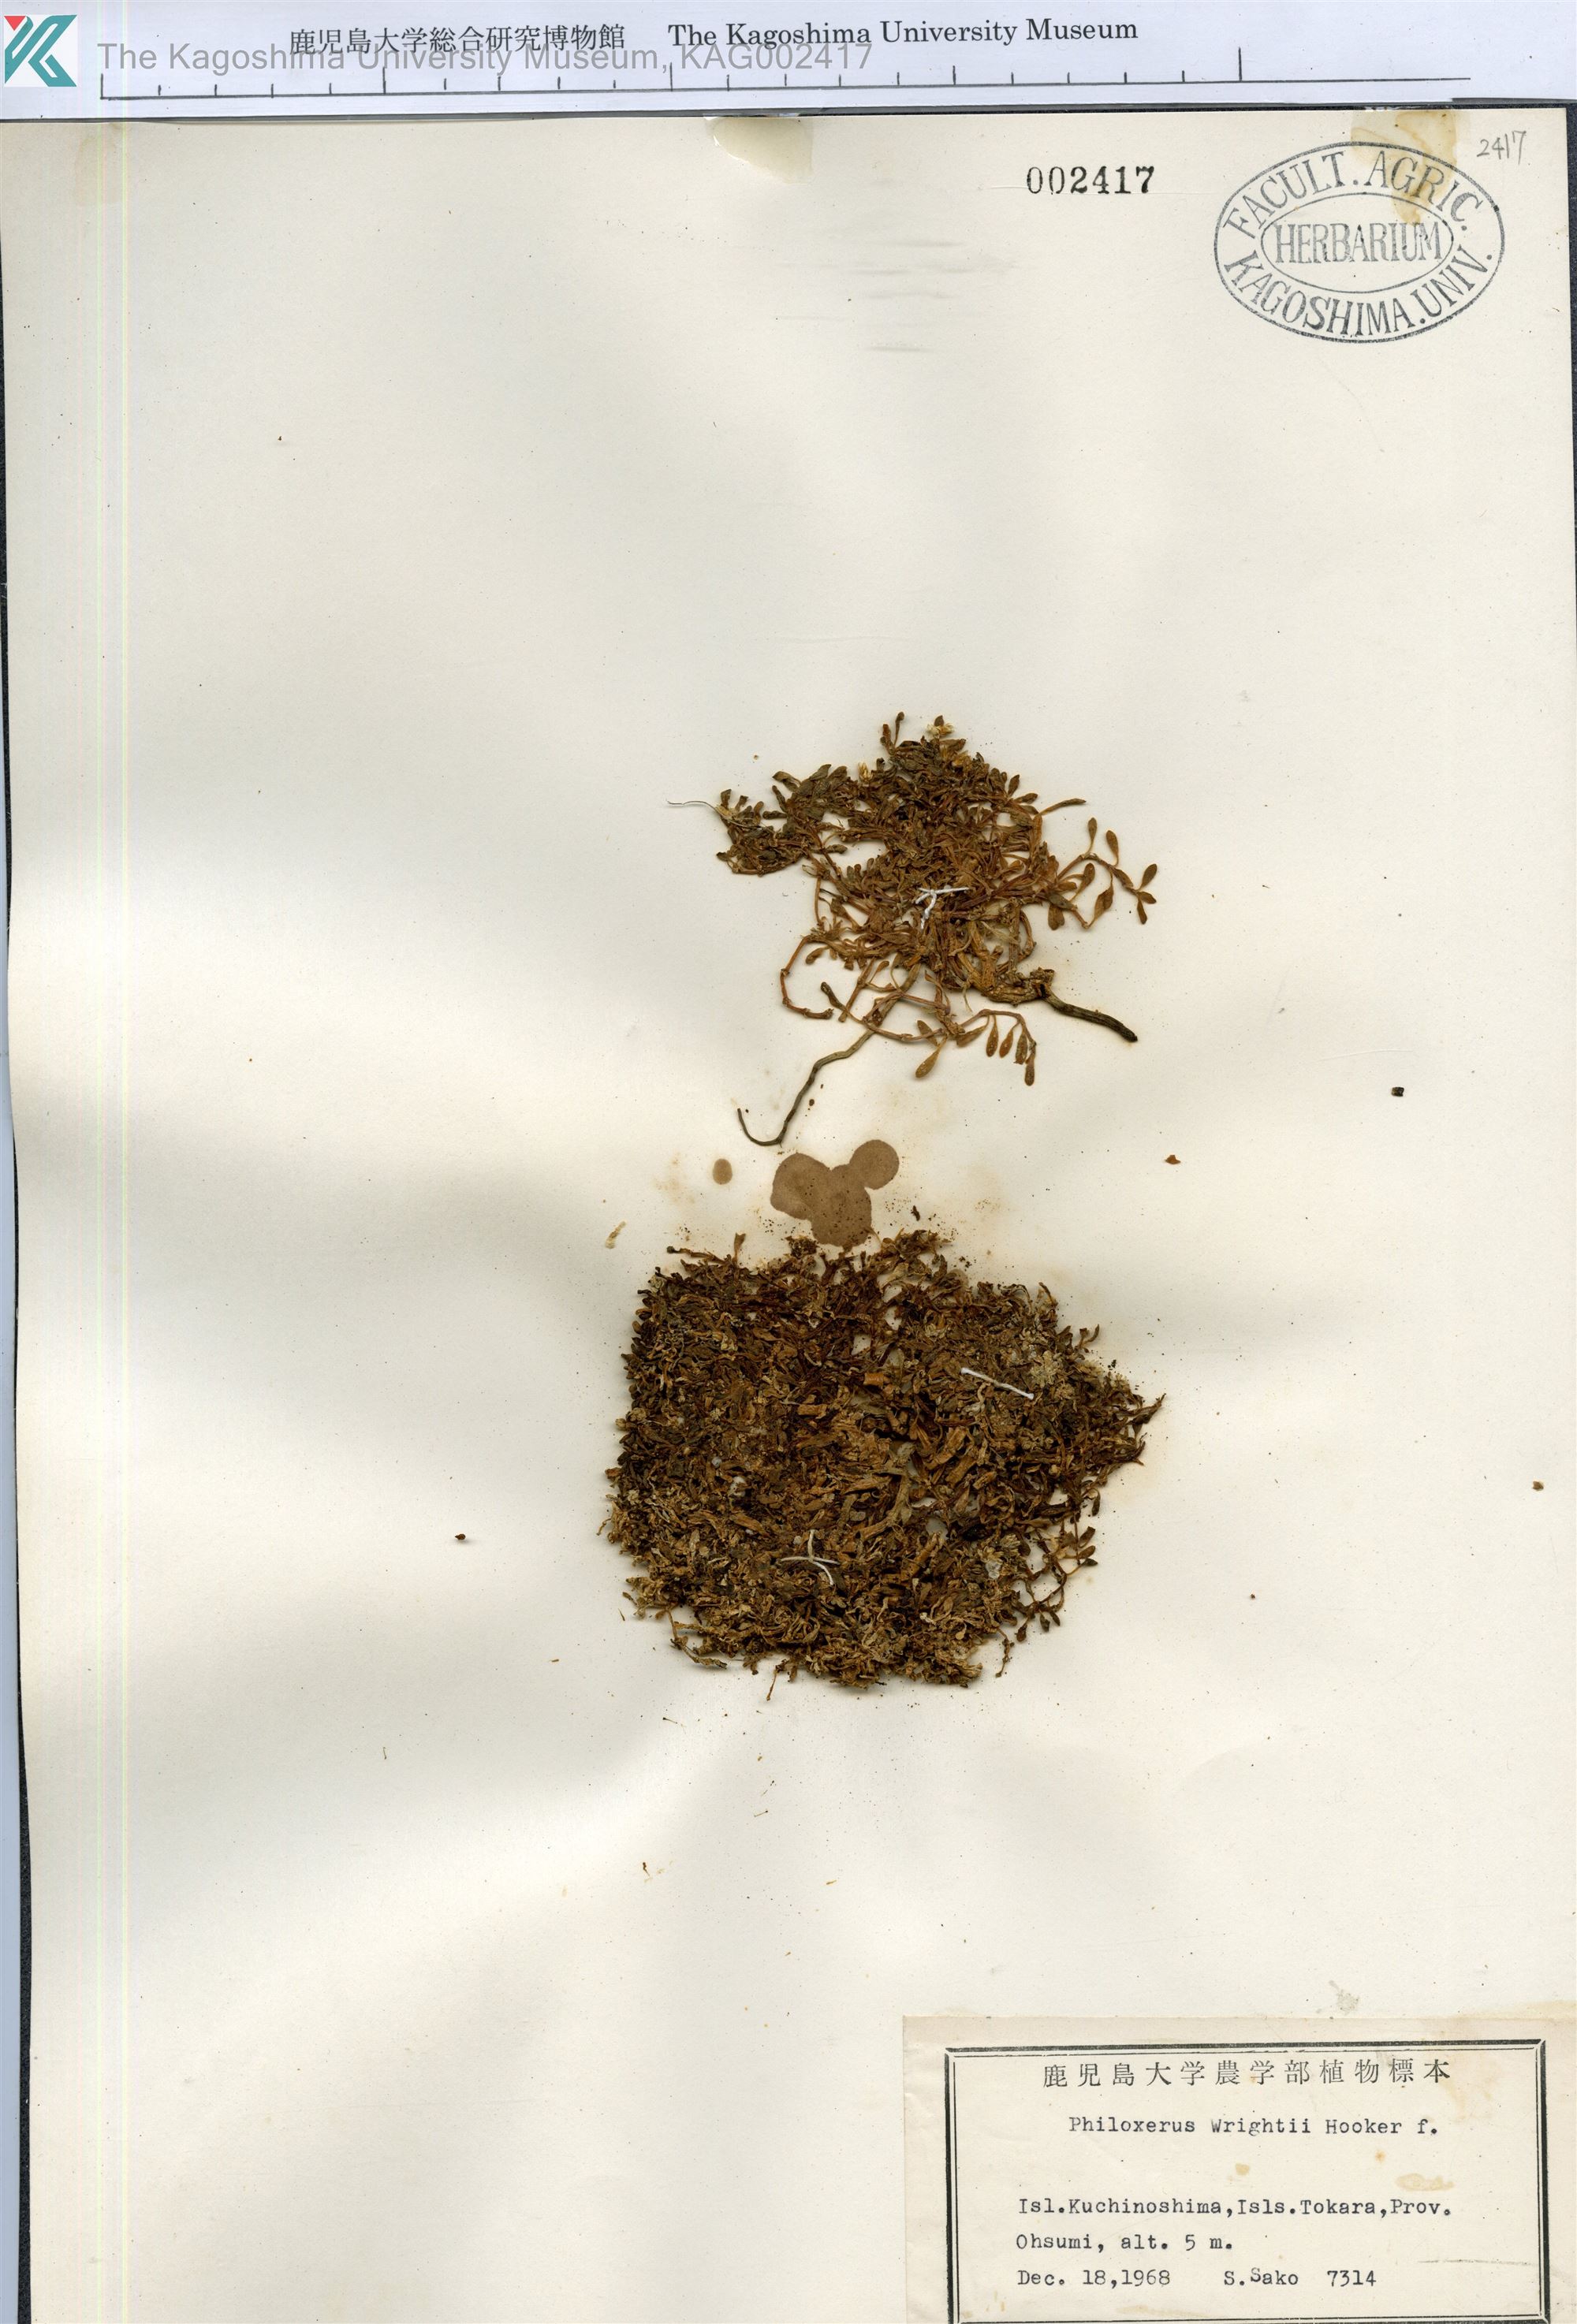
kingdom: Plantae
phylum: Tracheophyta
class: Magnoliopsida
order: Caryophyllales
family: Amaranthaceae
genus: Gomphrena
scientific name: Gomphrena wrightii
